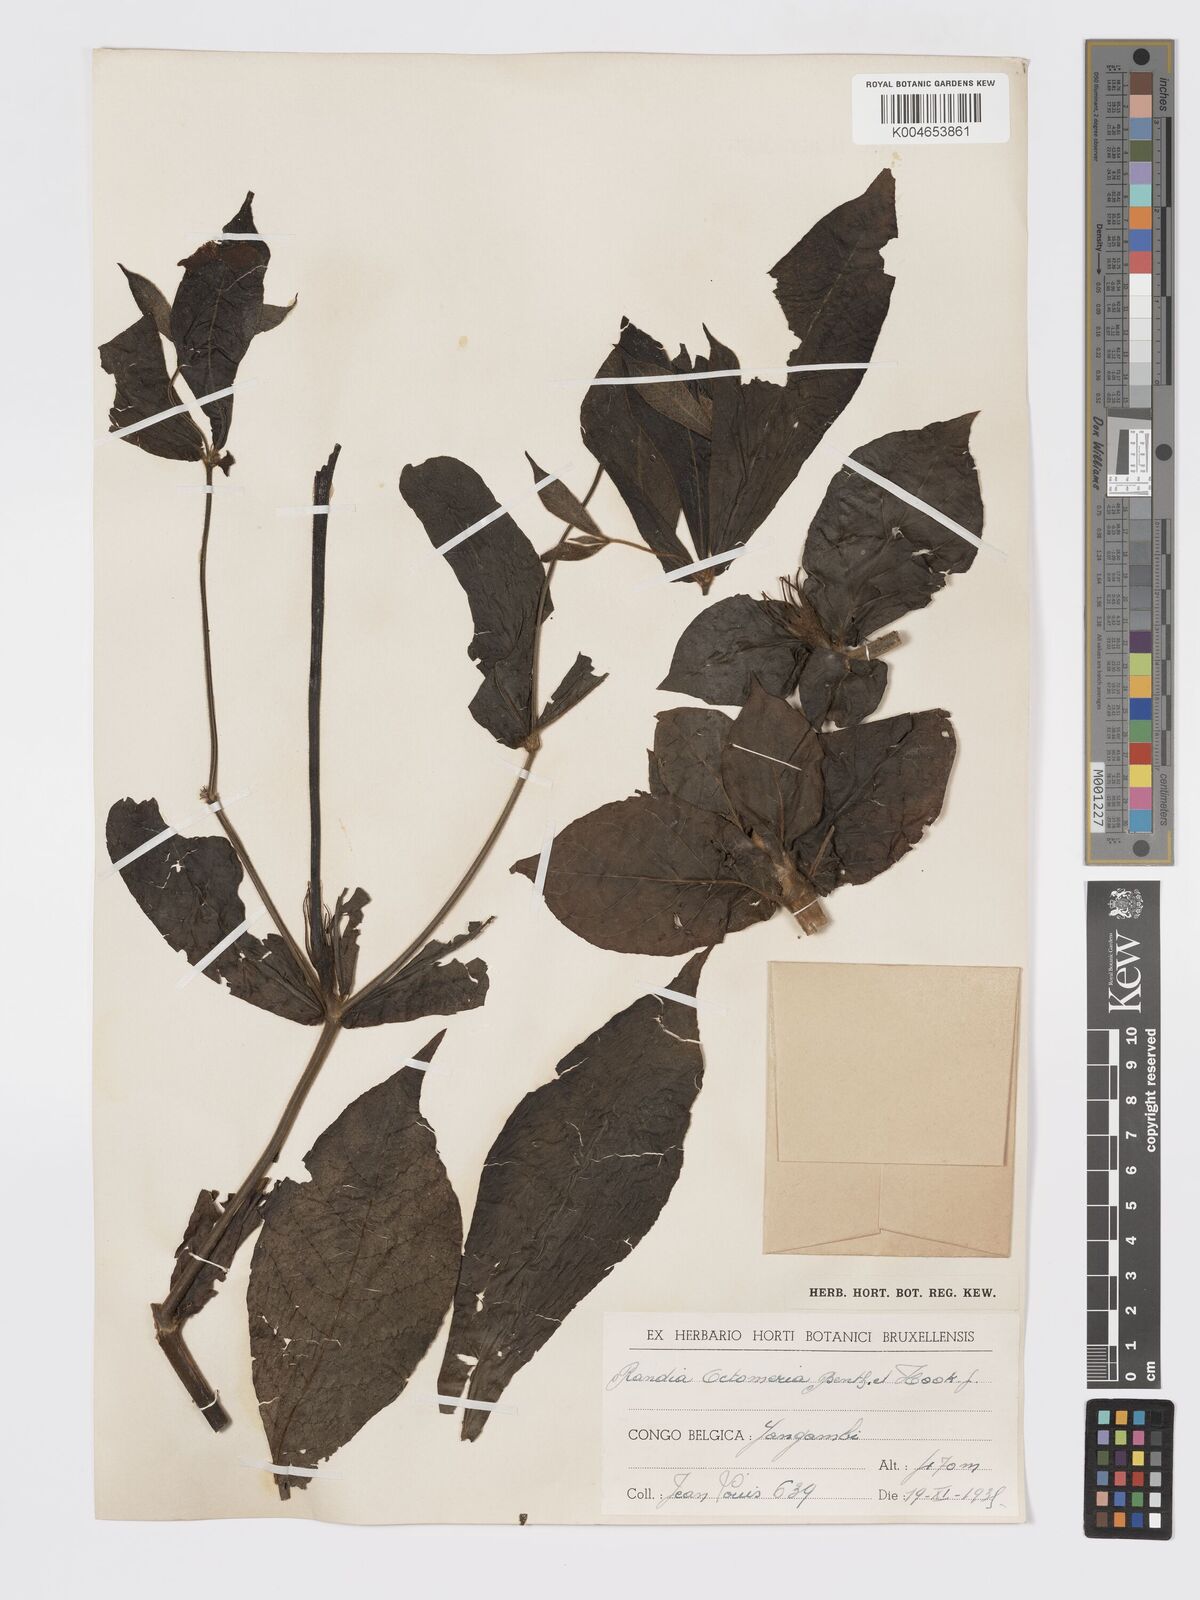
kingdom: Plantae
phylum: Tracheophyta
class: Magnoliopsida
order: Gentianales
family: Rubiaceae
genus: Rothmannia
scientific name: Rothmannia octomera
